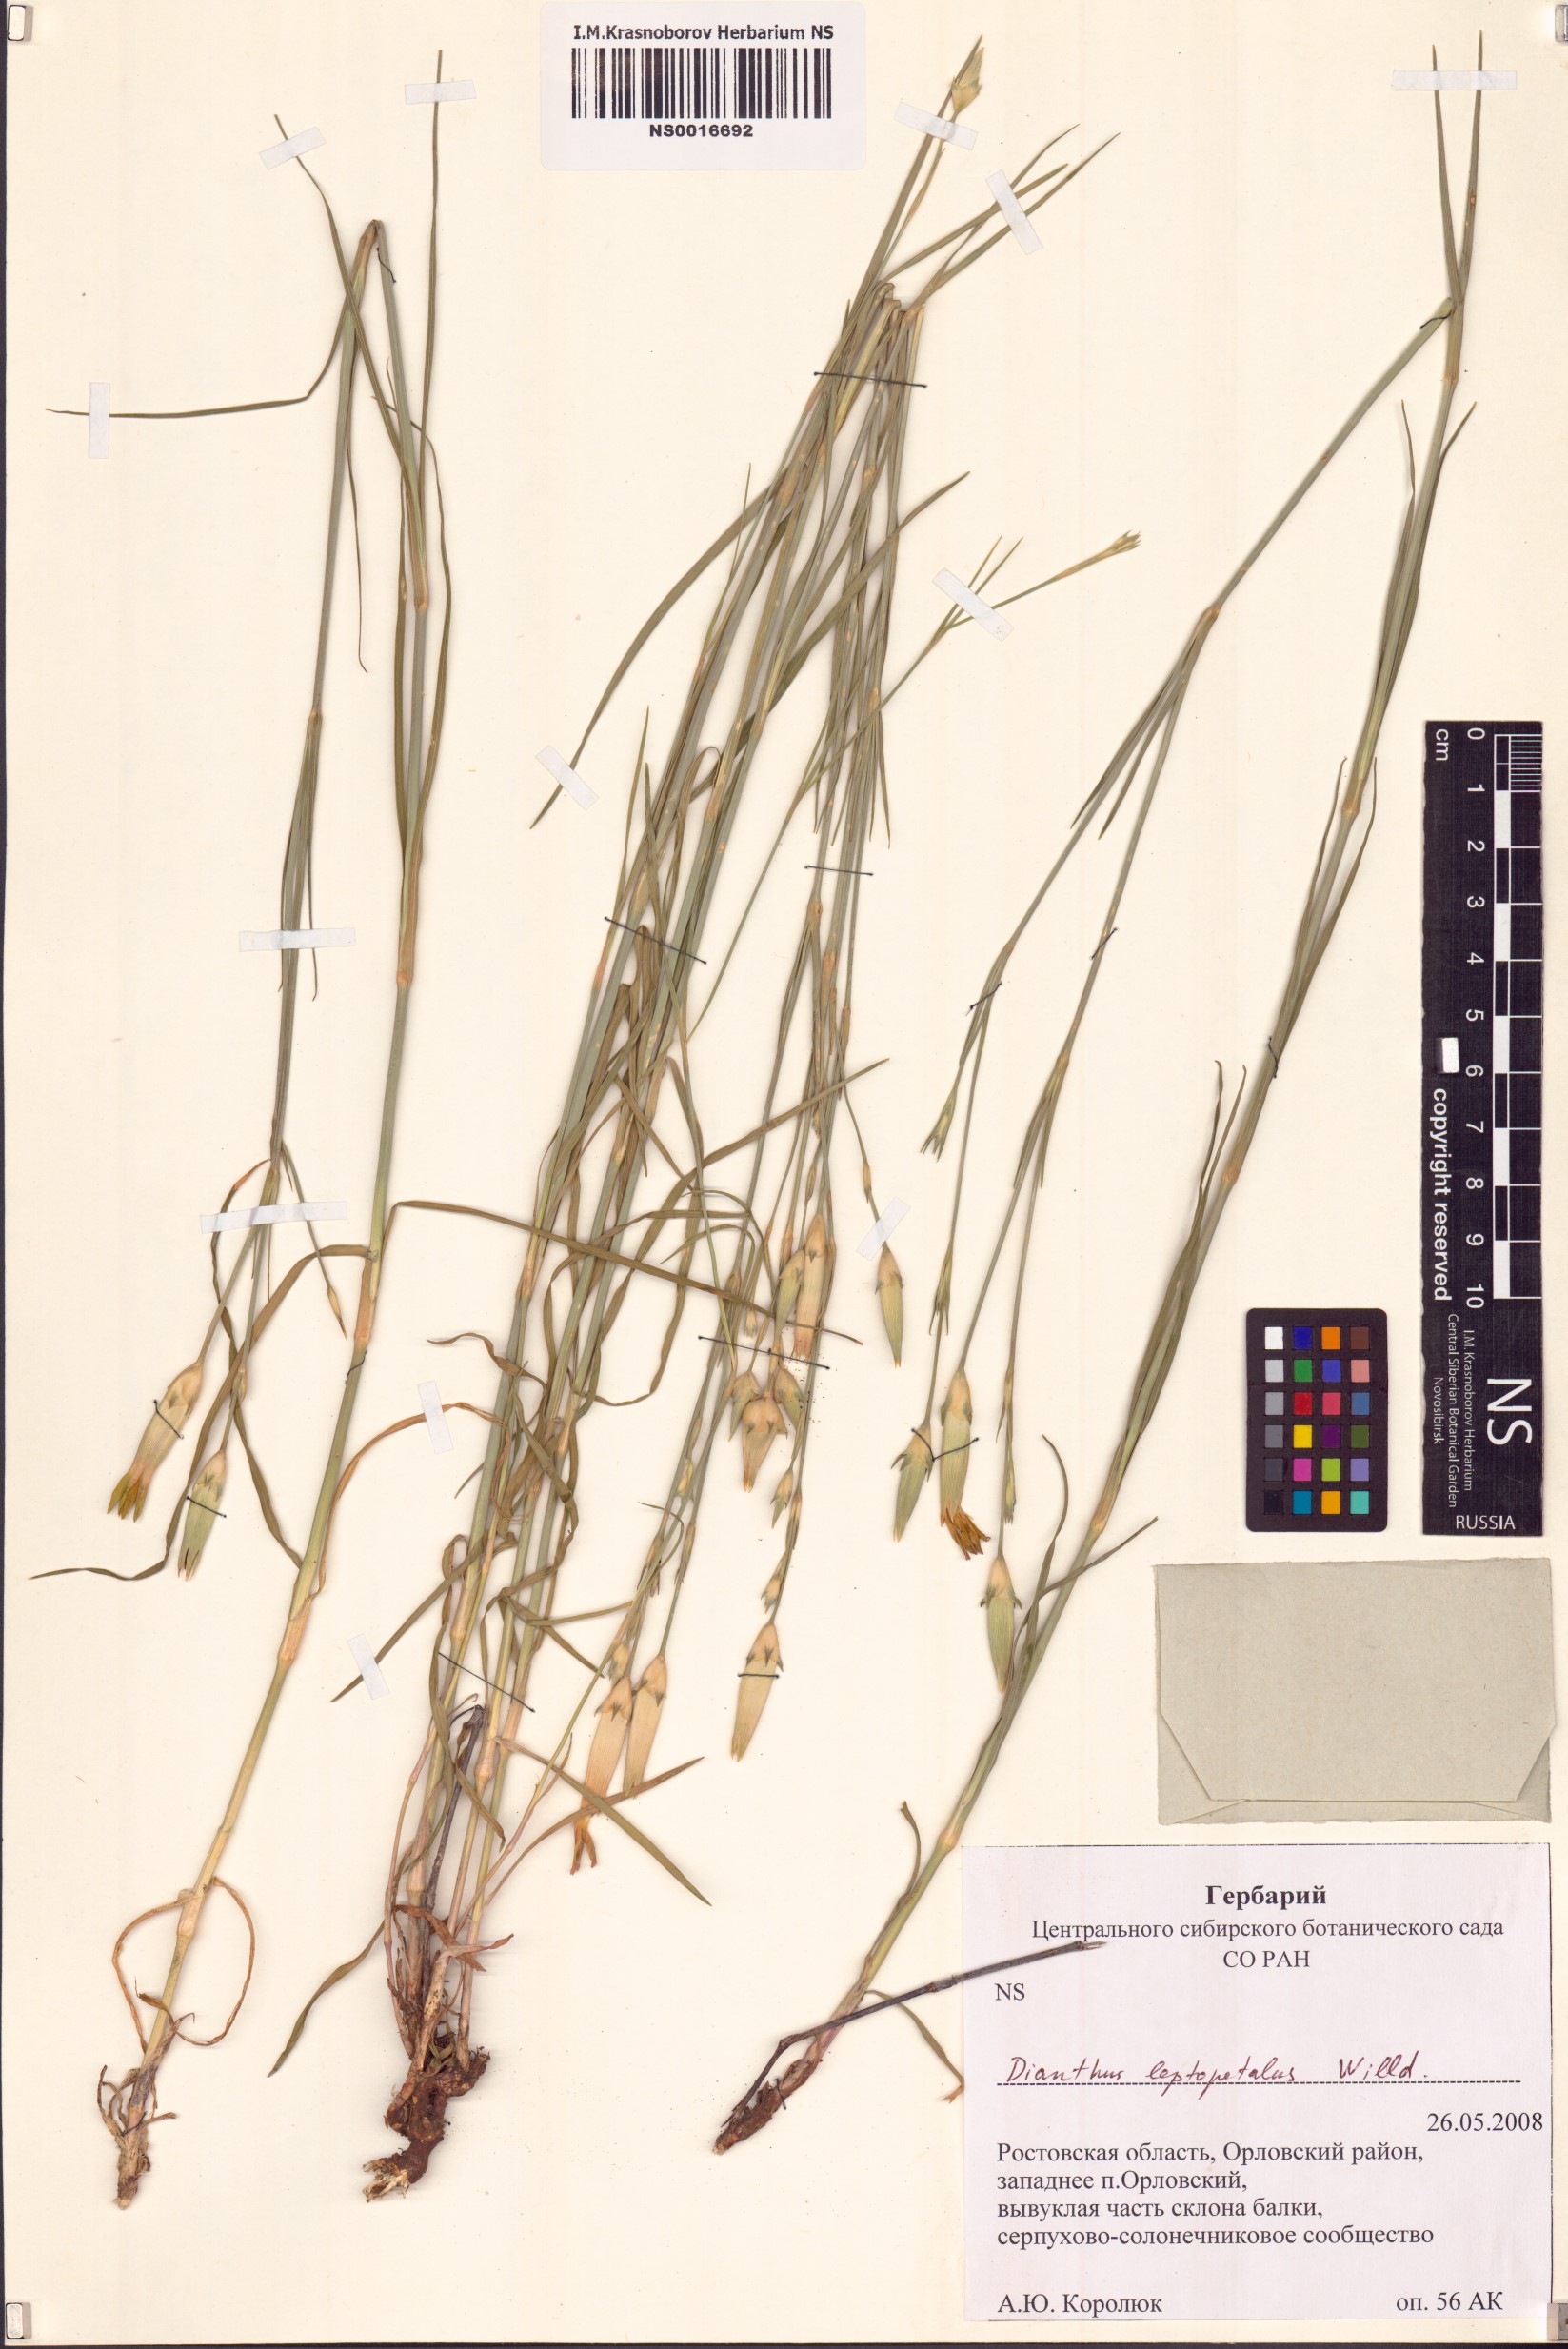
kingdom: Plantae
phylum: Tracheophyta
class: Magnoliopsida
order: Caryophyllales
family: Caryophyllaceae
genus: Dianthus
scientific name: Dianthus leptopetalus
